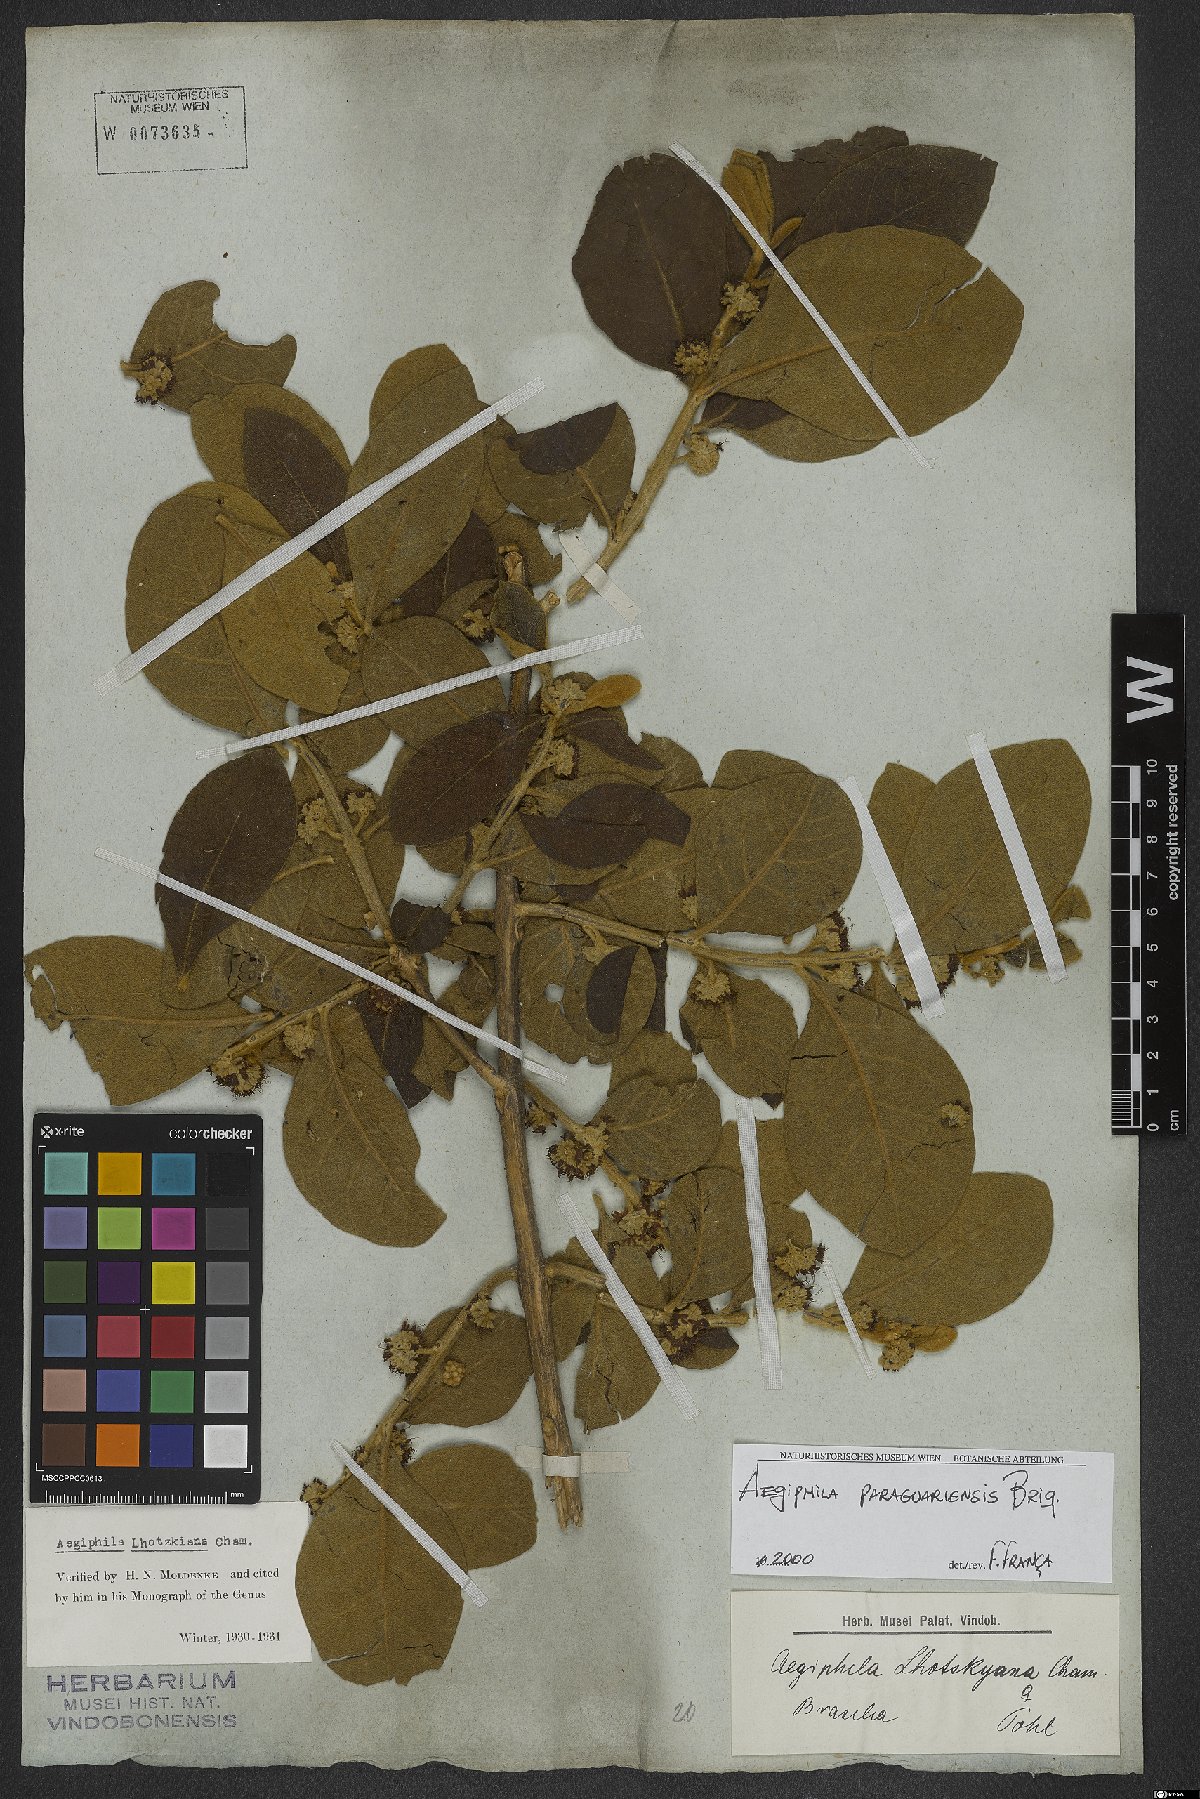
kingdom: Plantae
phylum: Tracheophyta
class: Magnoliopsida
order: Lamiales
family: Lamiaceae
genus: Aegiphila
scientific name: Aegiphila paraguariensis
